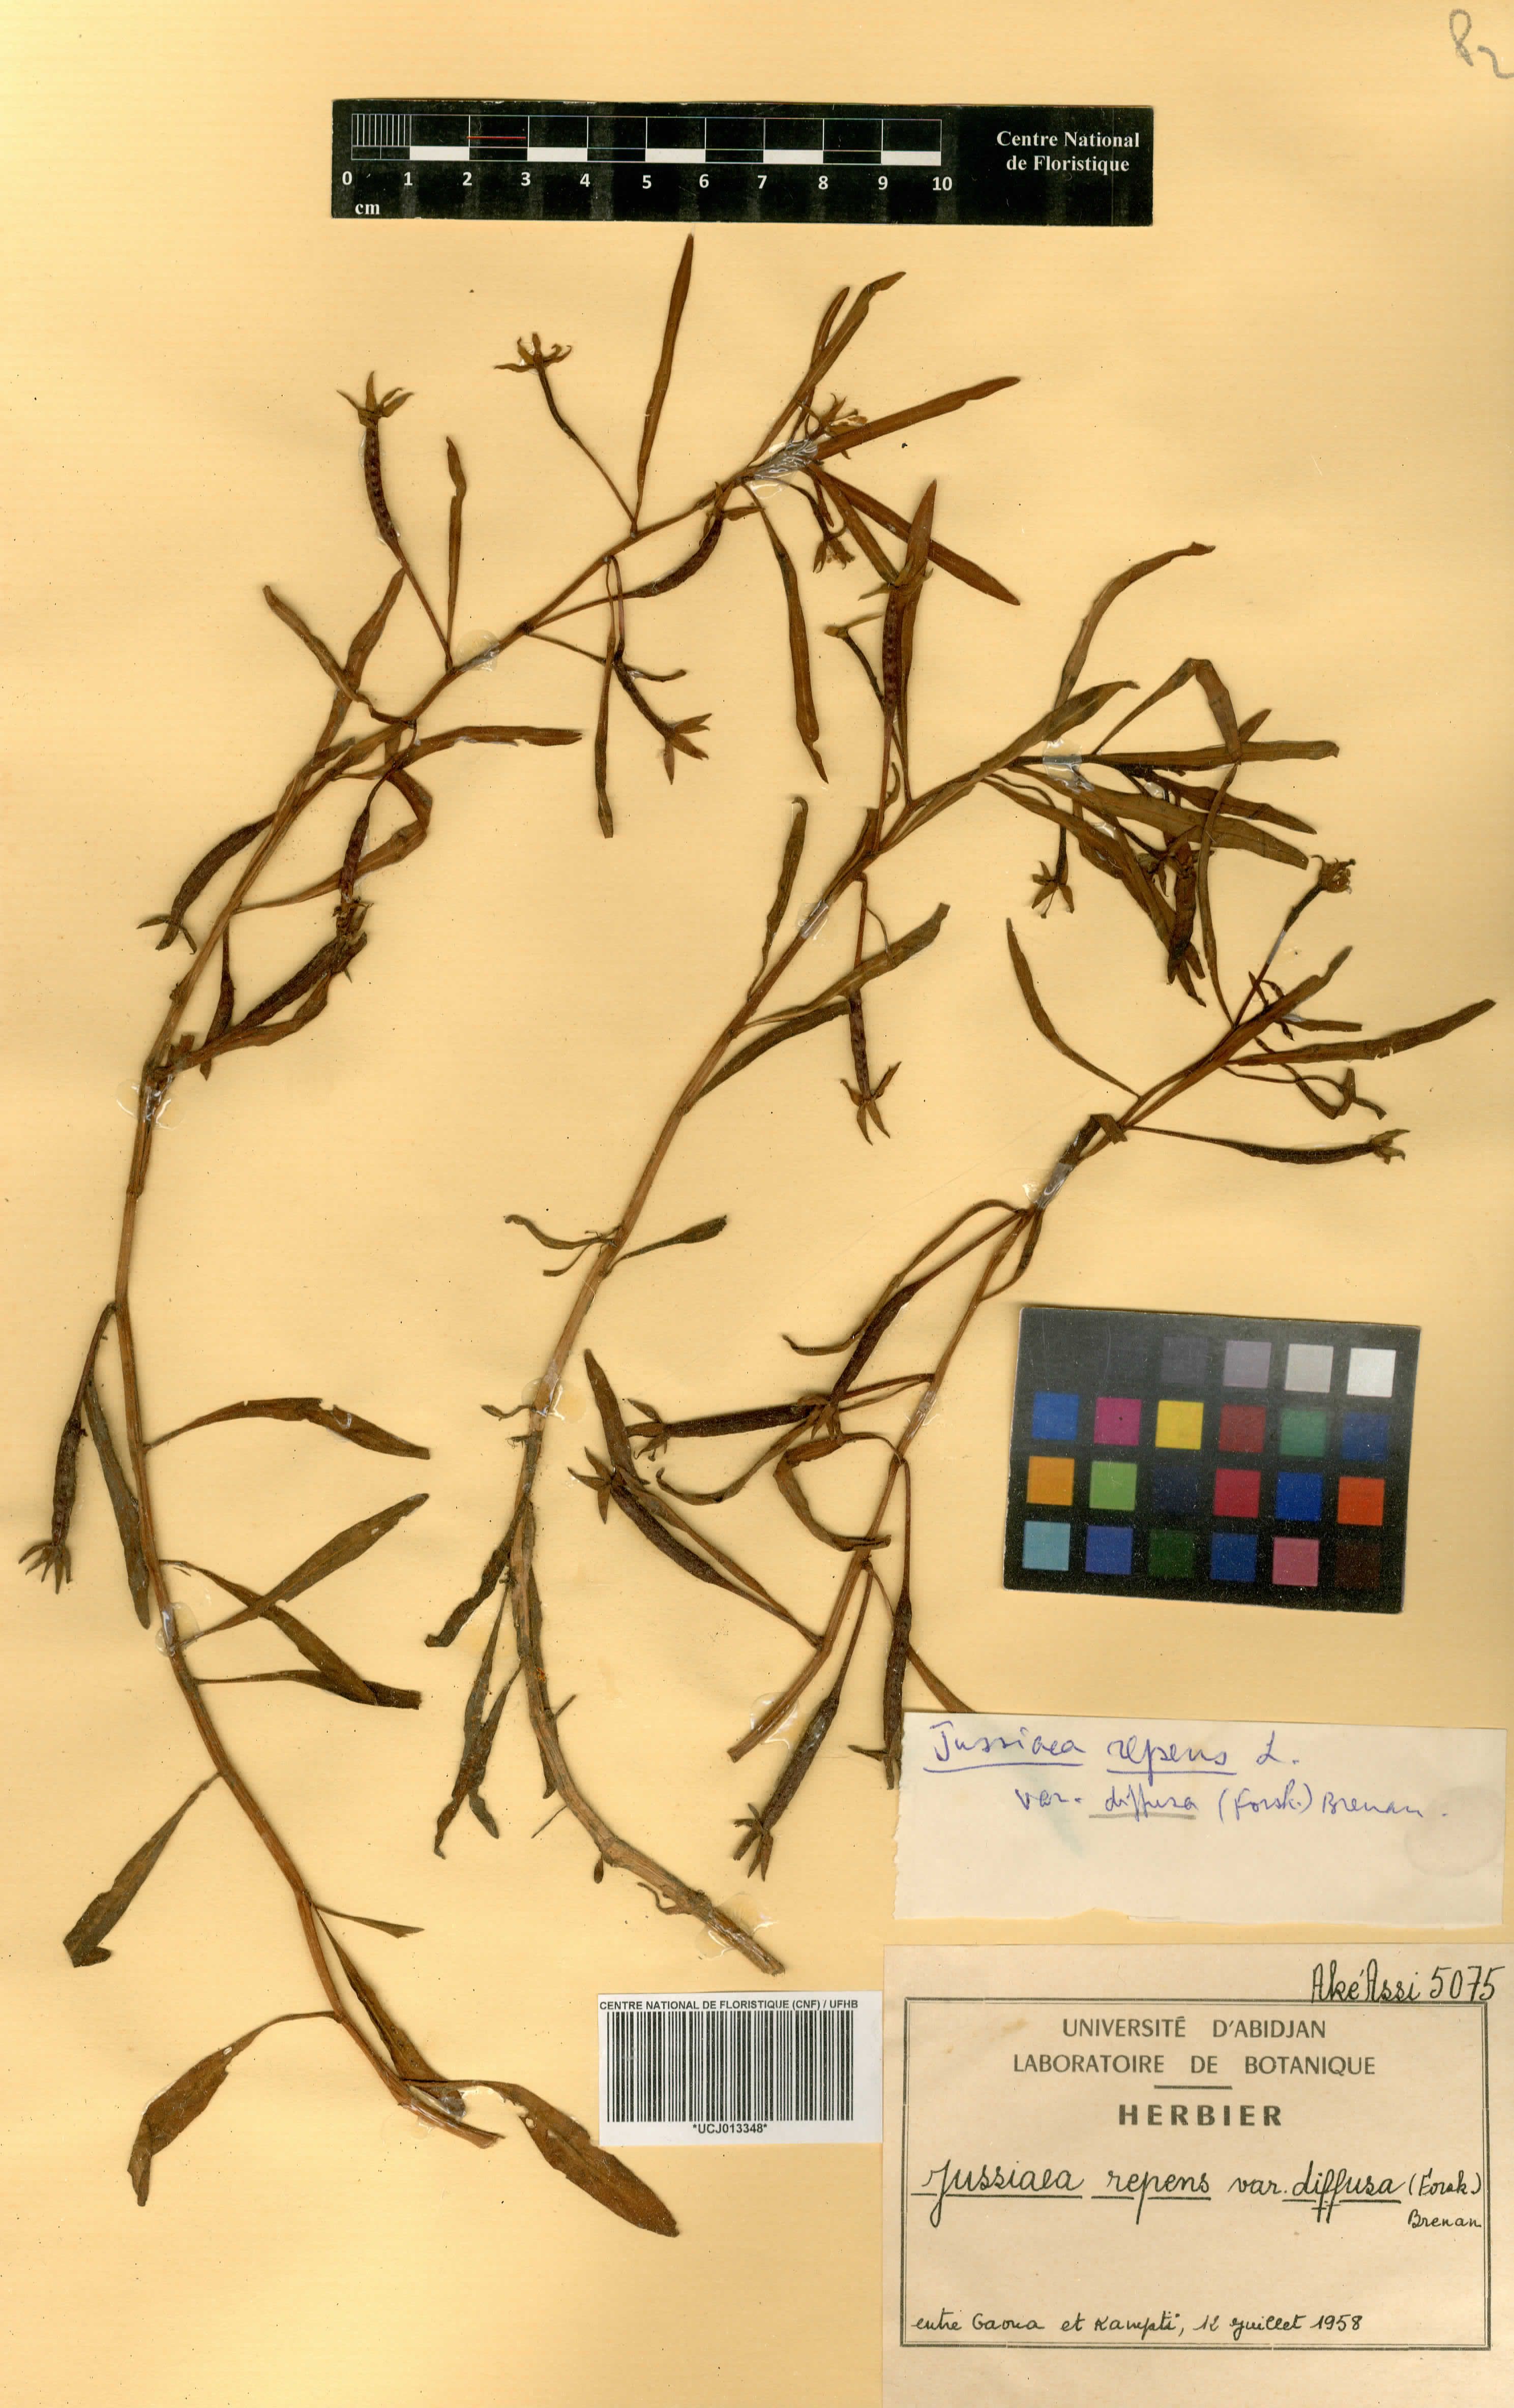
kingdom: Plantae
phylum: Tracheophyta
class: Magnoliopsida
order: Myrtales
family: Onagraceae
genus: Ludwigia
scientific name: Ludwigia adscendens
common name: Creeping water primrose
